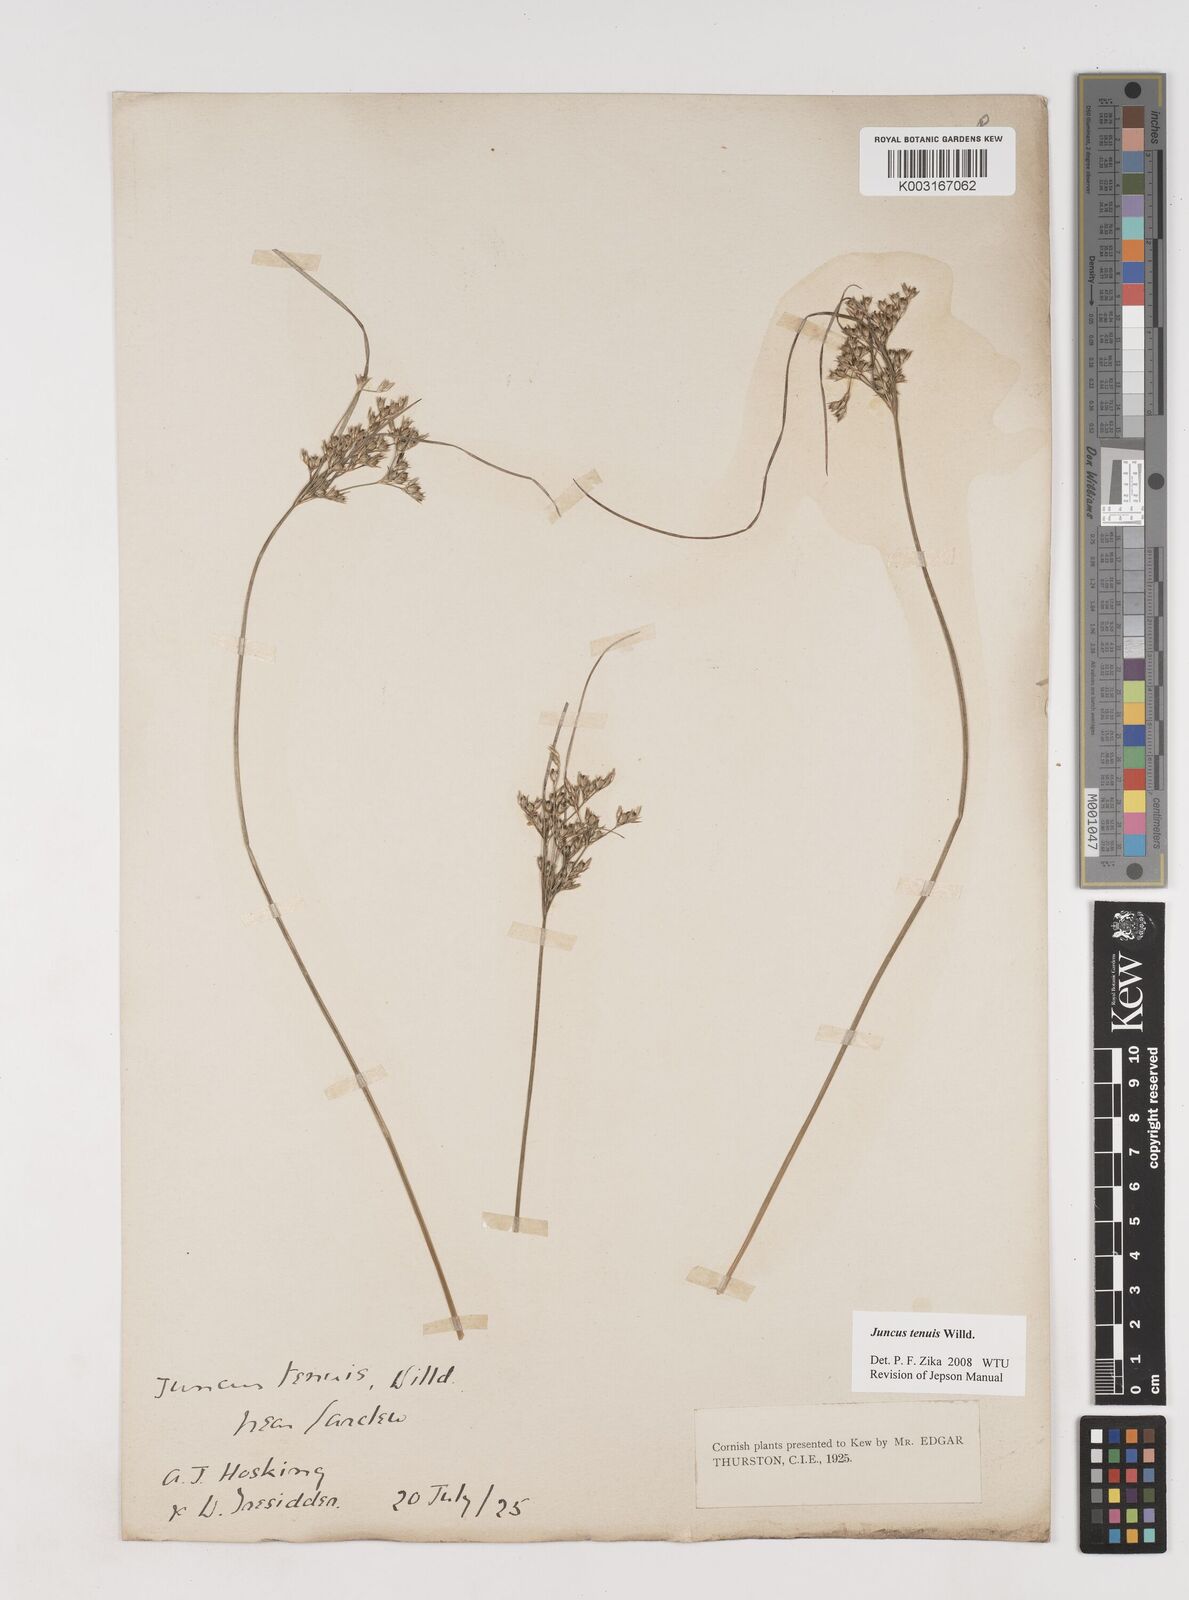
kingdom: Plantae
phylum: Tracheophyta
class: Liliopsida
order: Poales
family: Juncaceae
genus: Juncus
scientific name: Juncus tenuis
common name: Slender rush
